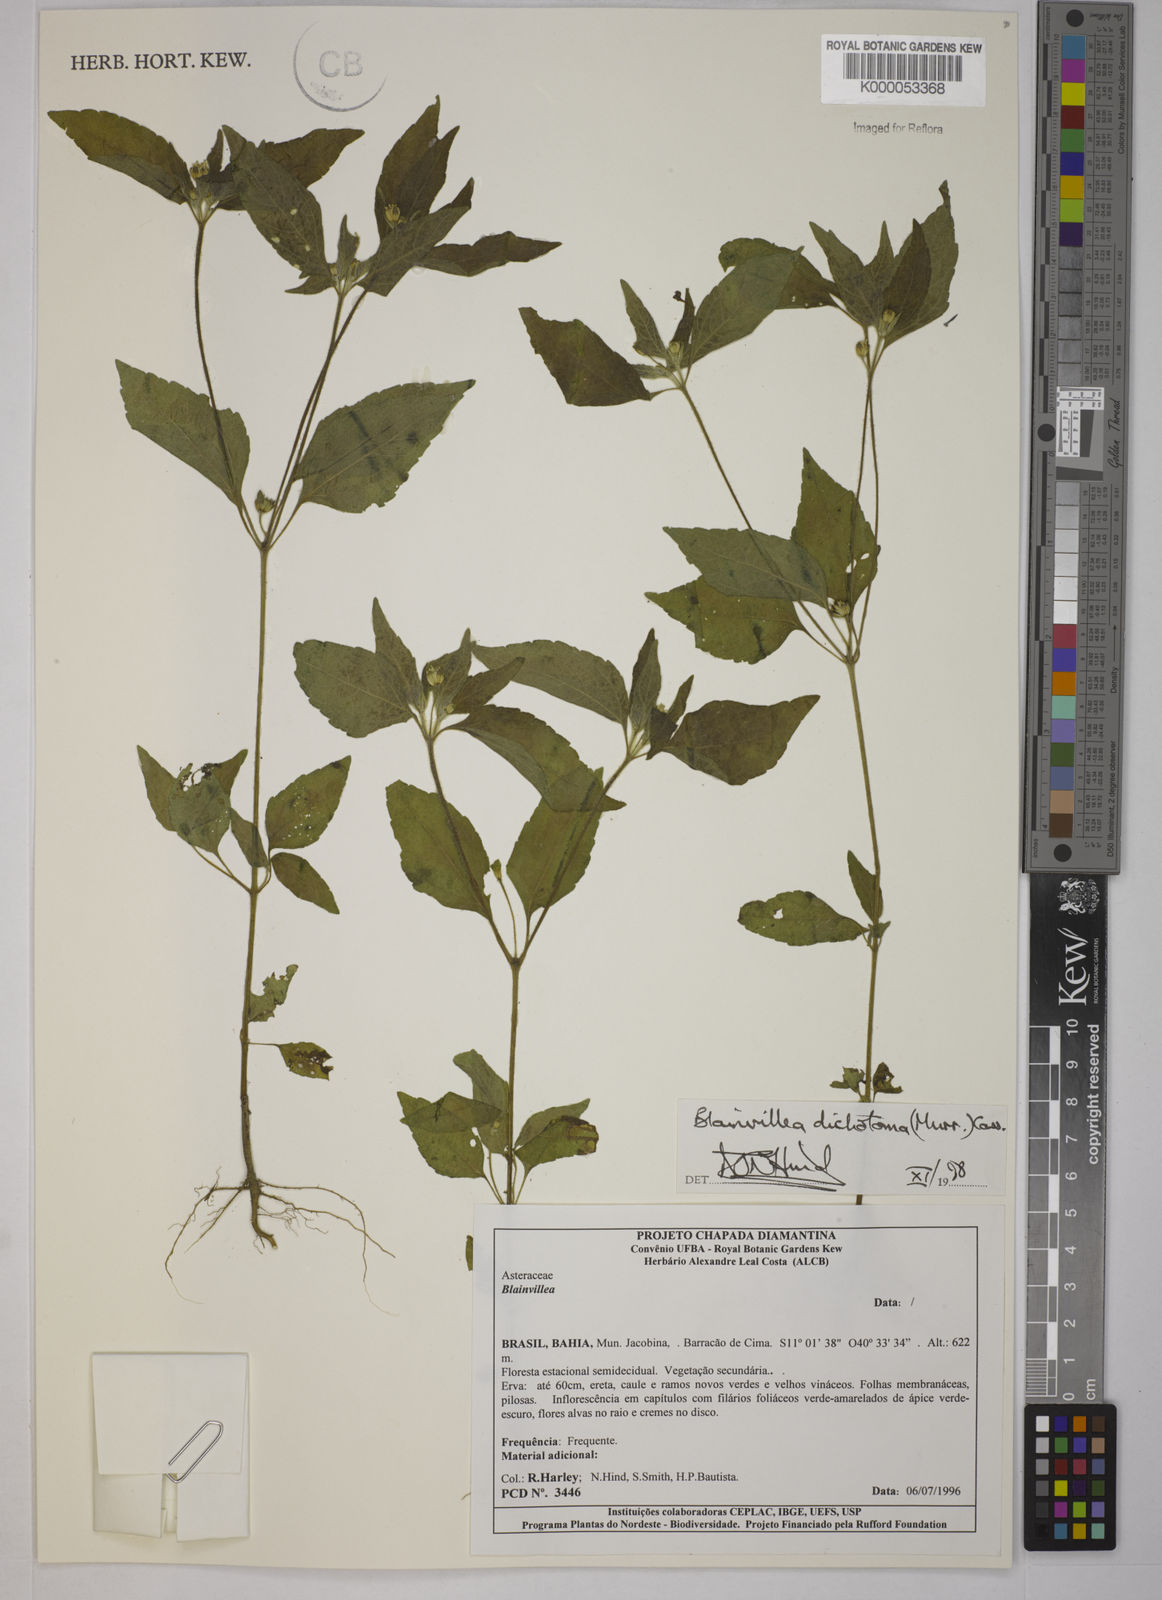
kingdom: Plantae
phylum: Tracheophyta
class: Magnoliopsida
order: Asterales
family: Asteraceae
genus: Blainvillea
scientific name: Blainvillea acmella
